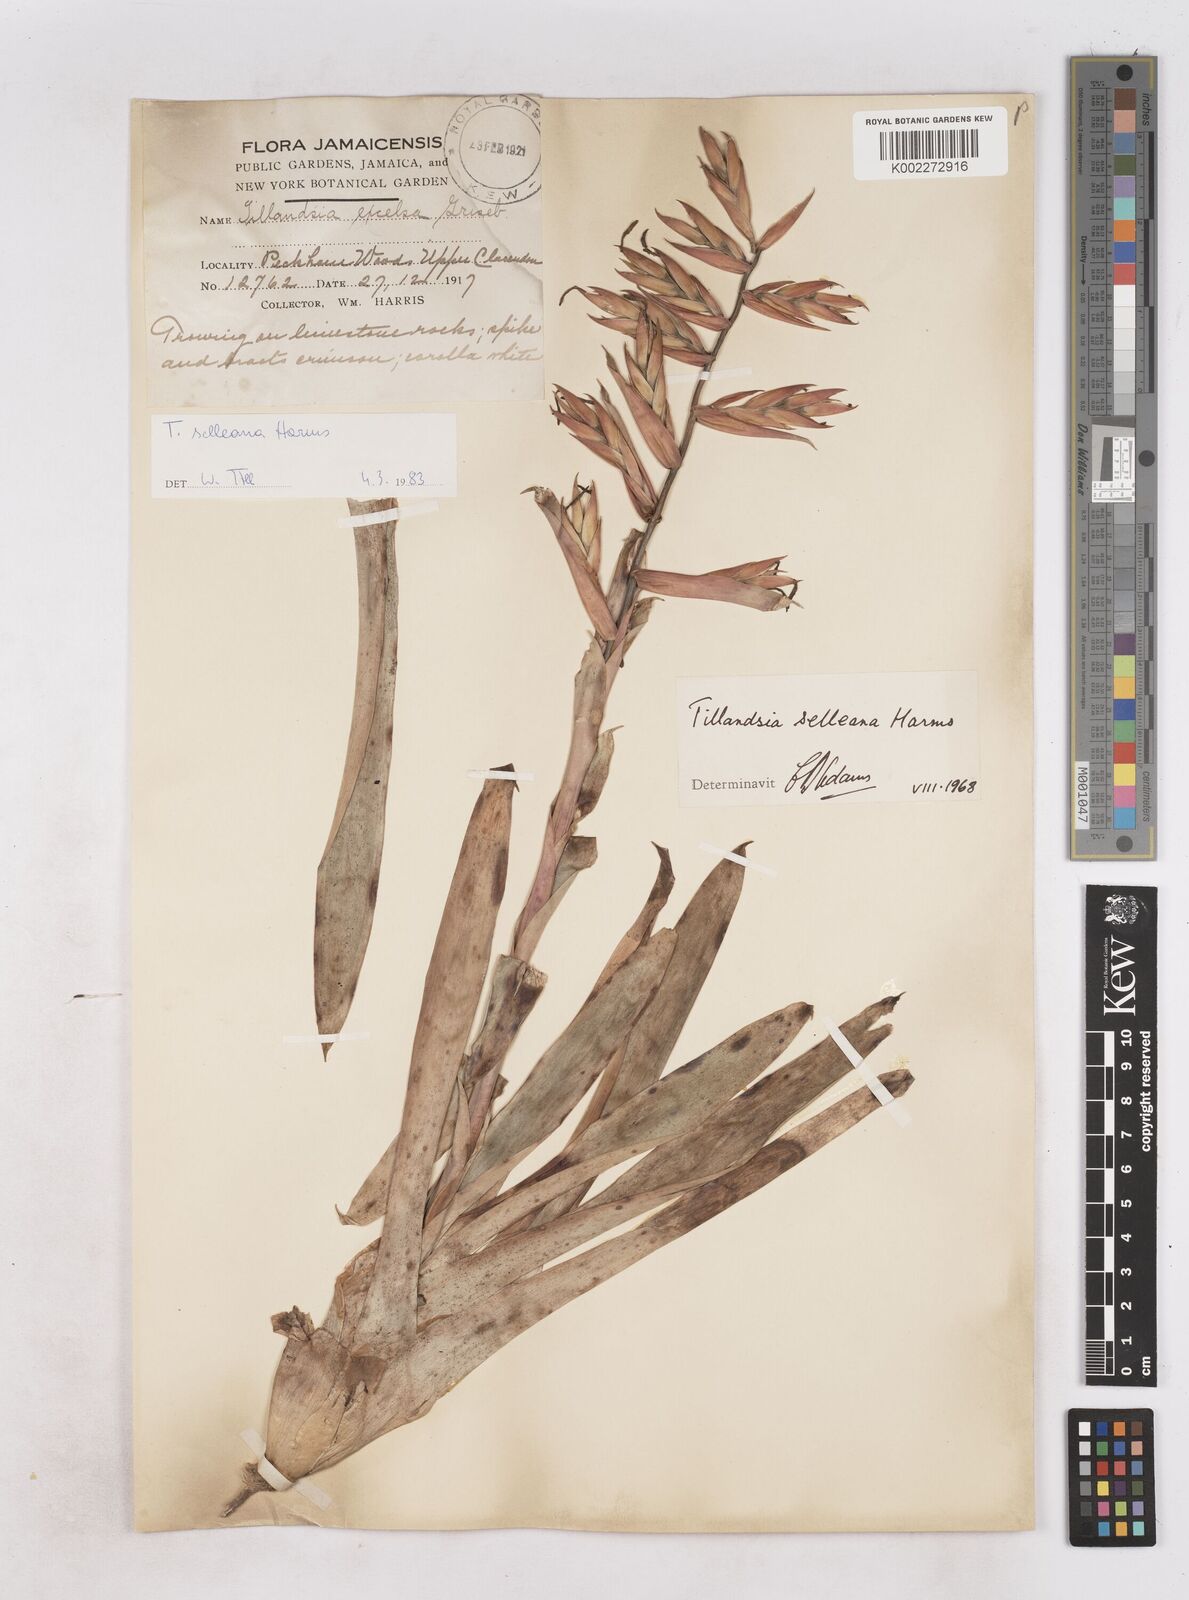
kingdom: Plantae
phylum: Tracheophyta
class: Liliopsida
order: Poales
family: Bromeliaceae
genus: Tillandsia
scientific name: Tillandsia selleana
